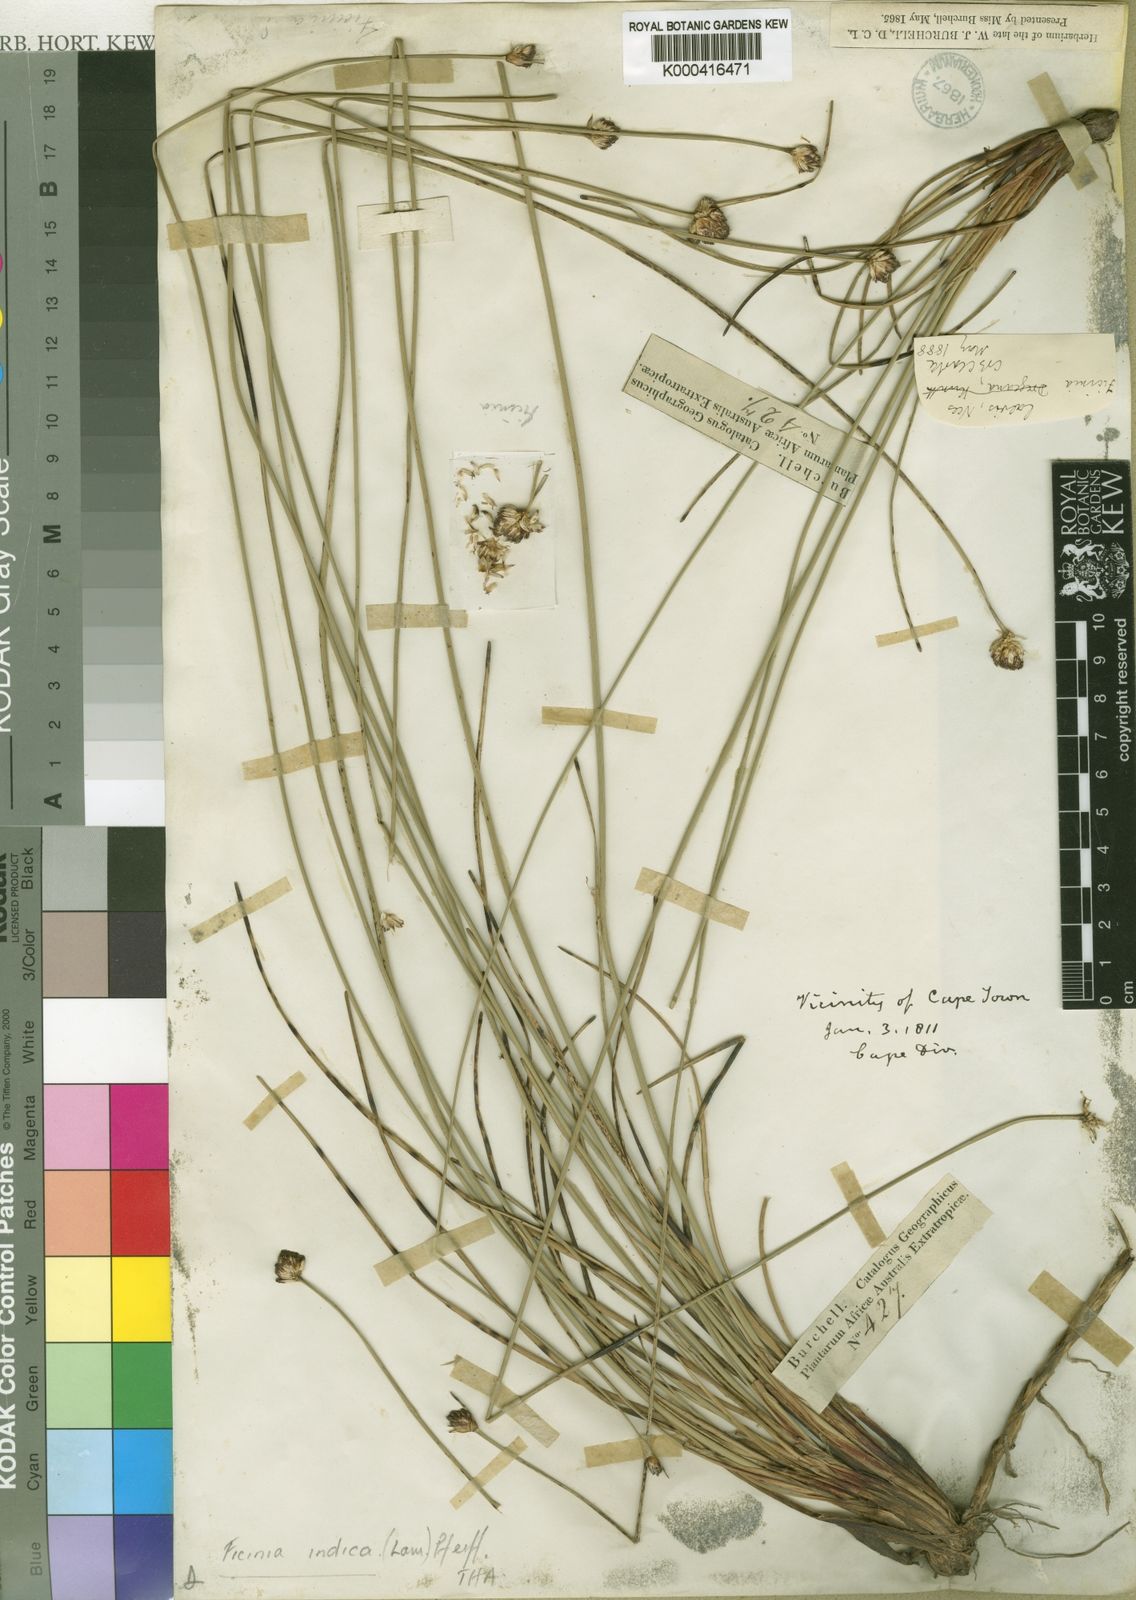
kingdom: Plantae
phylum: Tracheophyta
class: Liliopsida
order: Poales
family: Cyperaceae
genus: Ficinia
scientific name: Ficinia laevis
